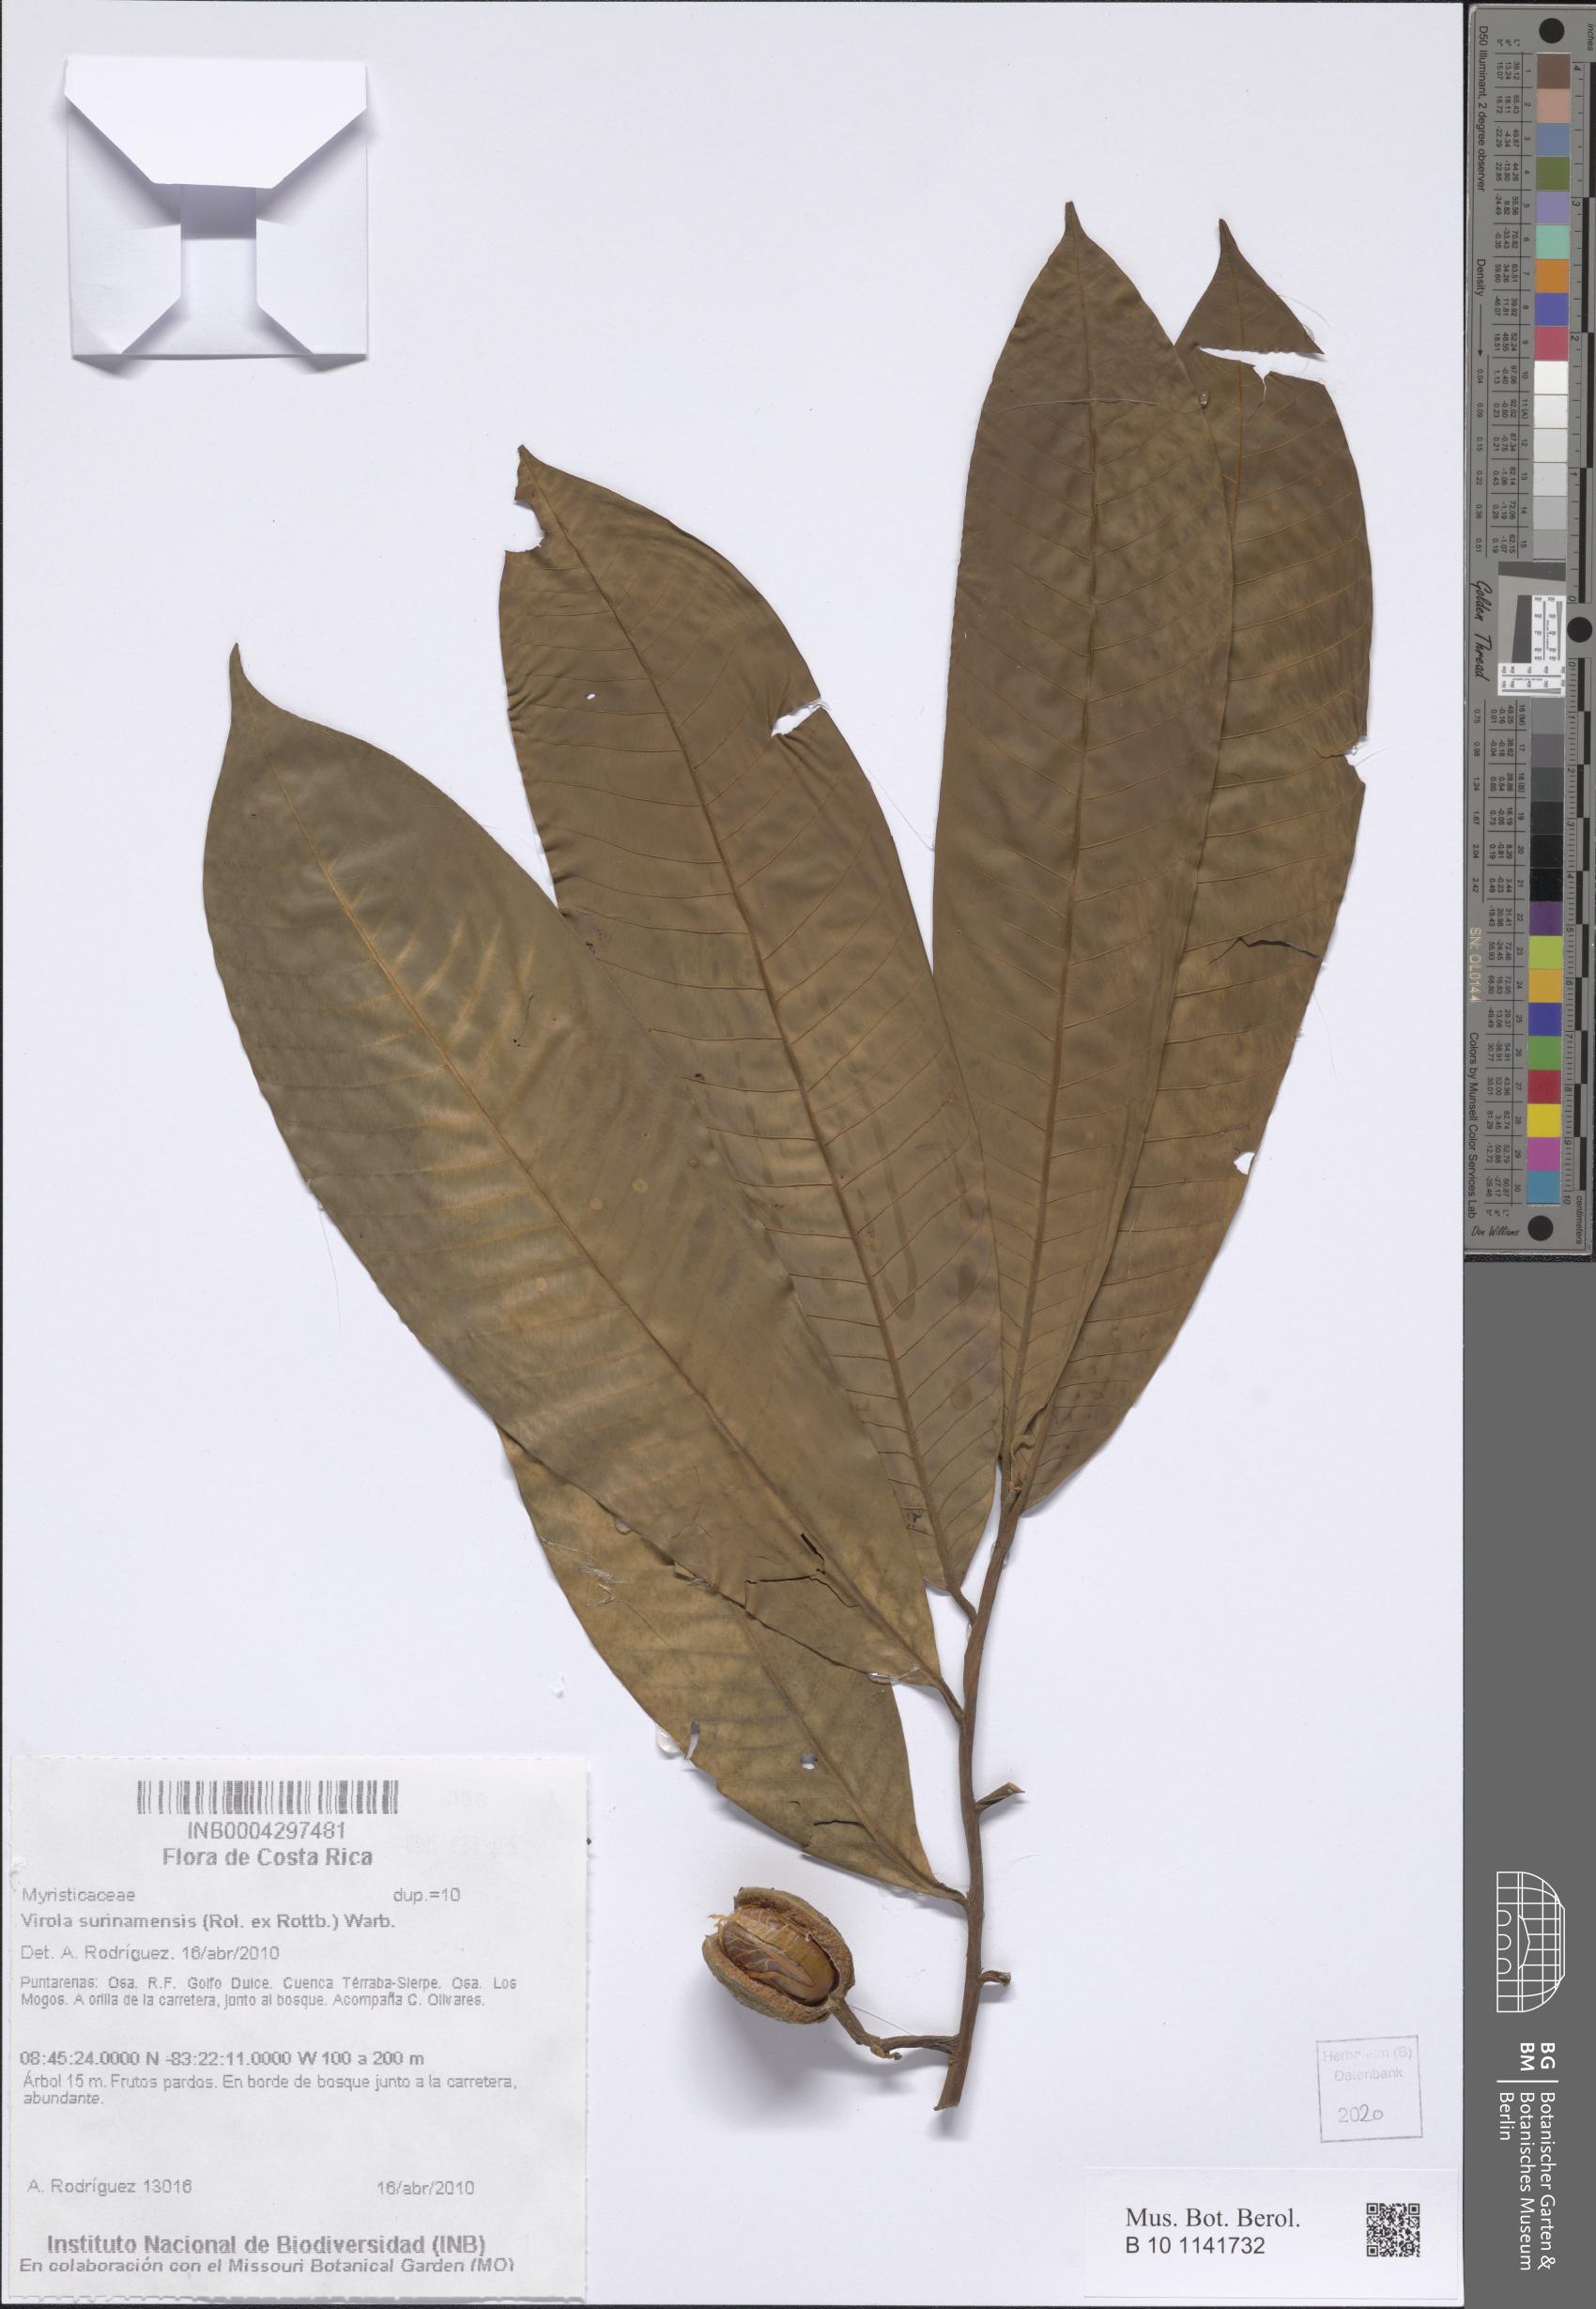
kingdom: Plantae
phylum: Tracheophyta
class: Magnoliopsida
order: Magnoliales
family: Myristicaceae
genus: Virola
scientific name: Virola surinamensis
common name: Baboonwood
